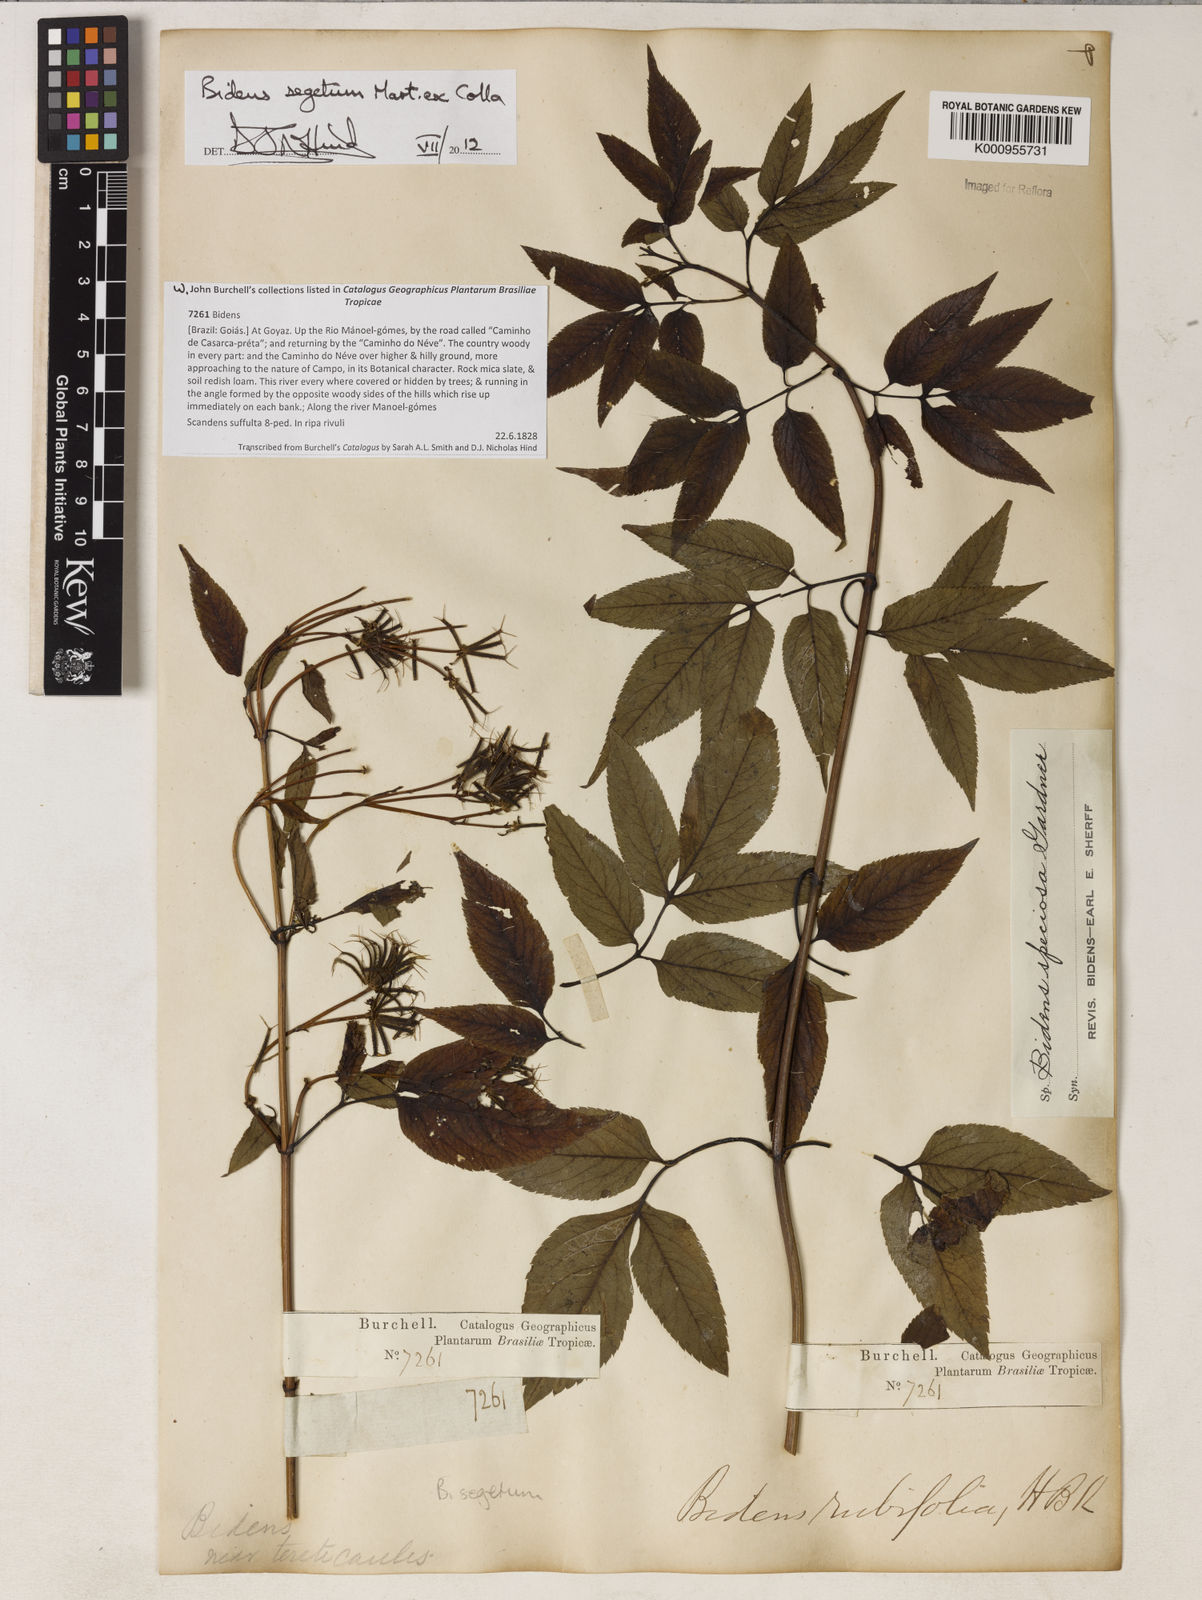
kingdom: Plantae
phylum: Tracheophyta
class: Magnoliopsida
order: Asterales
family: Asteraceae
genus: Bidens
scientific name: Bidens segetum
